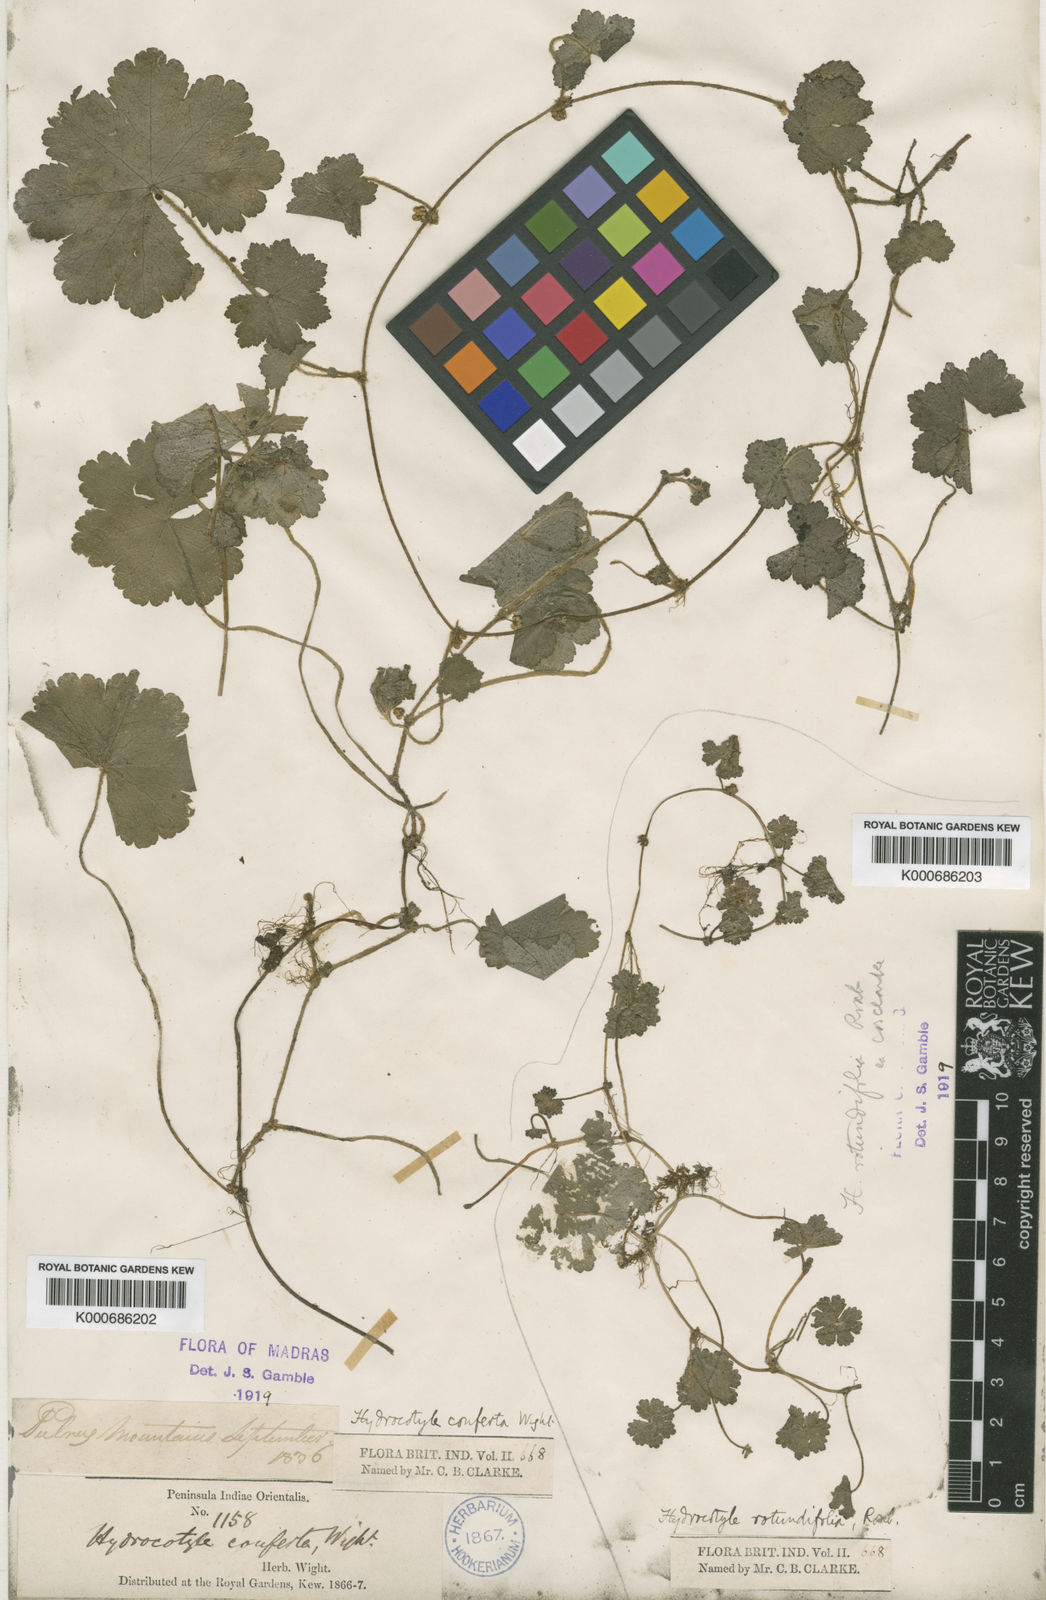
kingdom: Plantae
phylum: Tracheophyta
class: Magnoliopsida
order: Apiales
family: Araliaceae
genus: Hydrocotyle
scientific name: Hydrocotyle pseudoconferta
